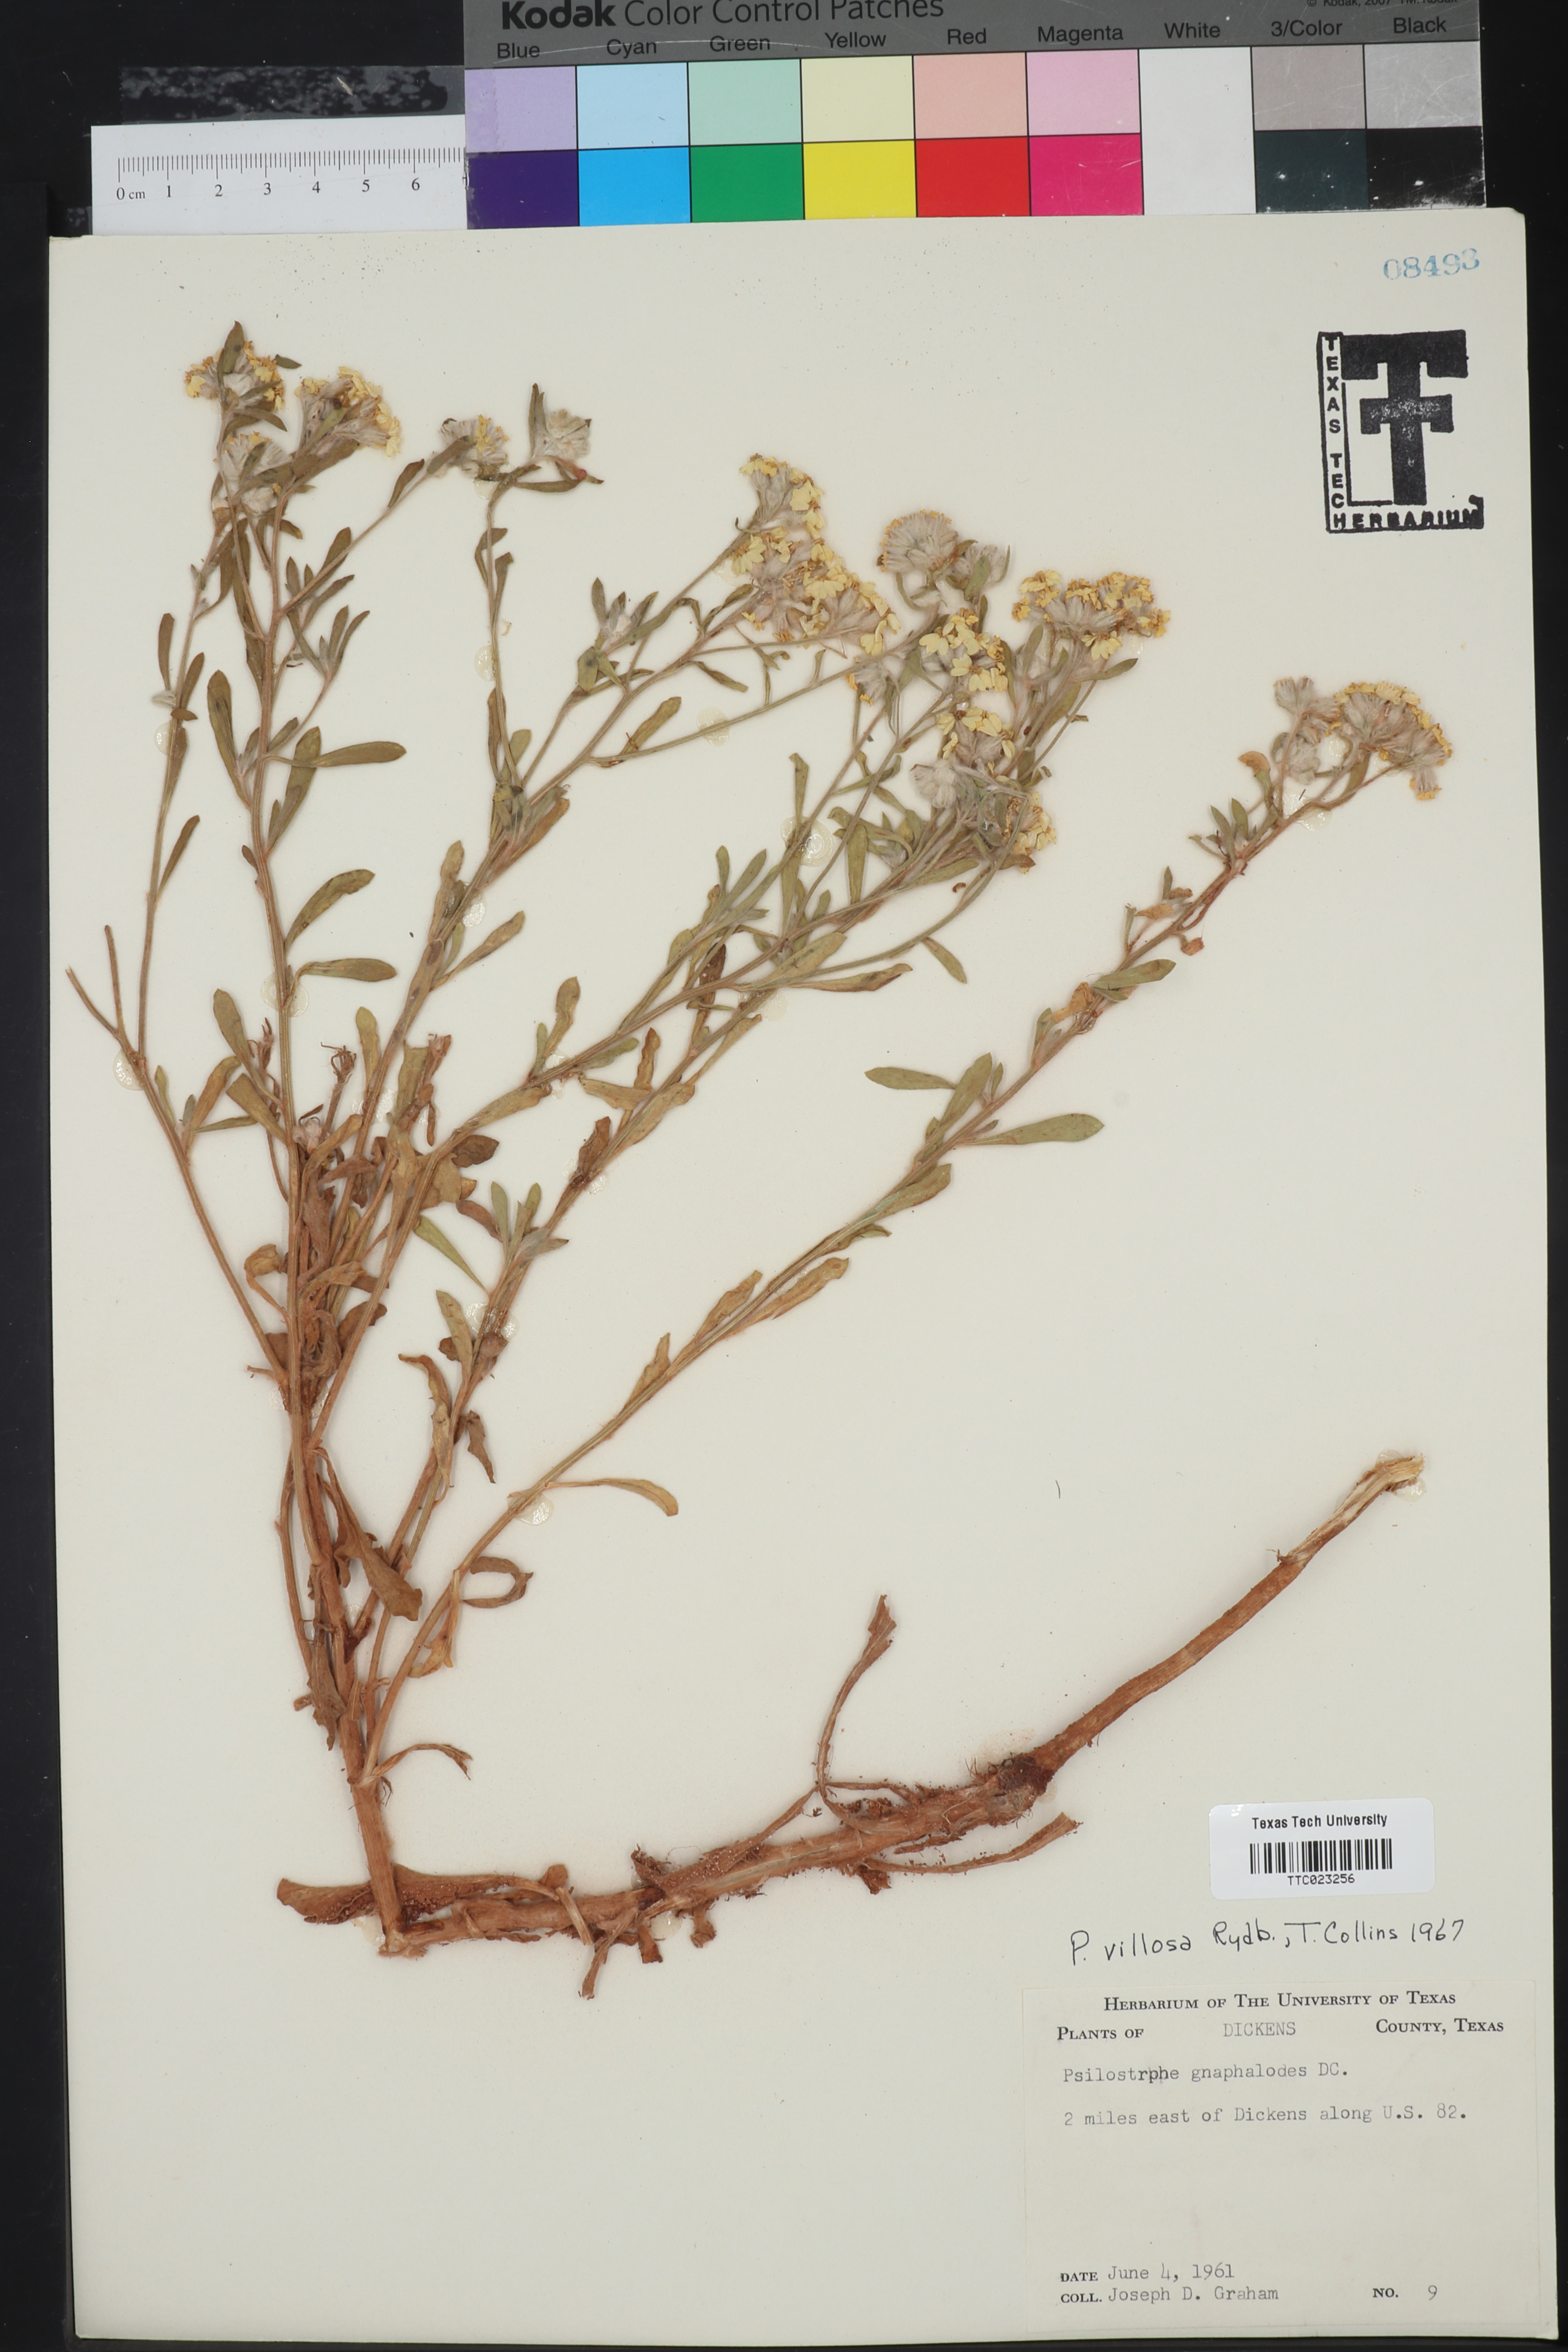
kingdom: Plantae
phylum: Tracheophyta
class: Magnoliopsida
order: Asterales
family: Asteraceae
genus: Psilostrophe
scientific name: Psilostrophe villosa
